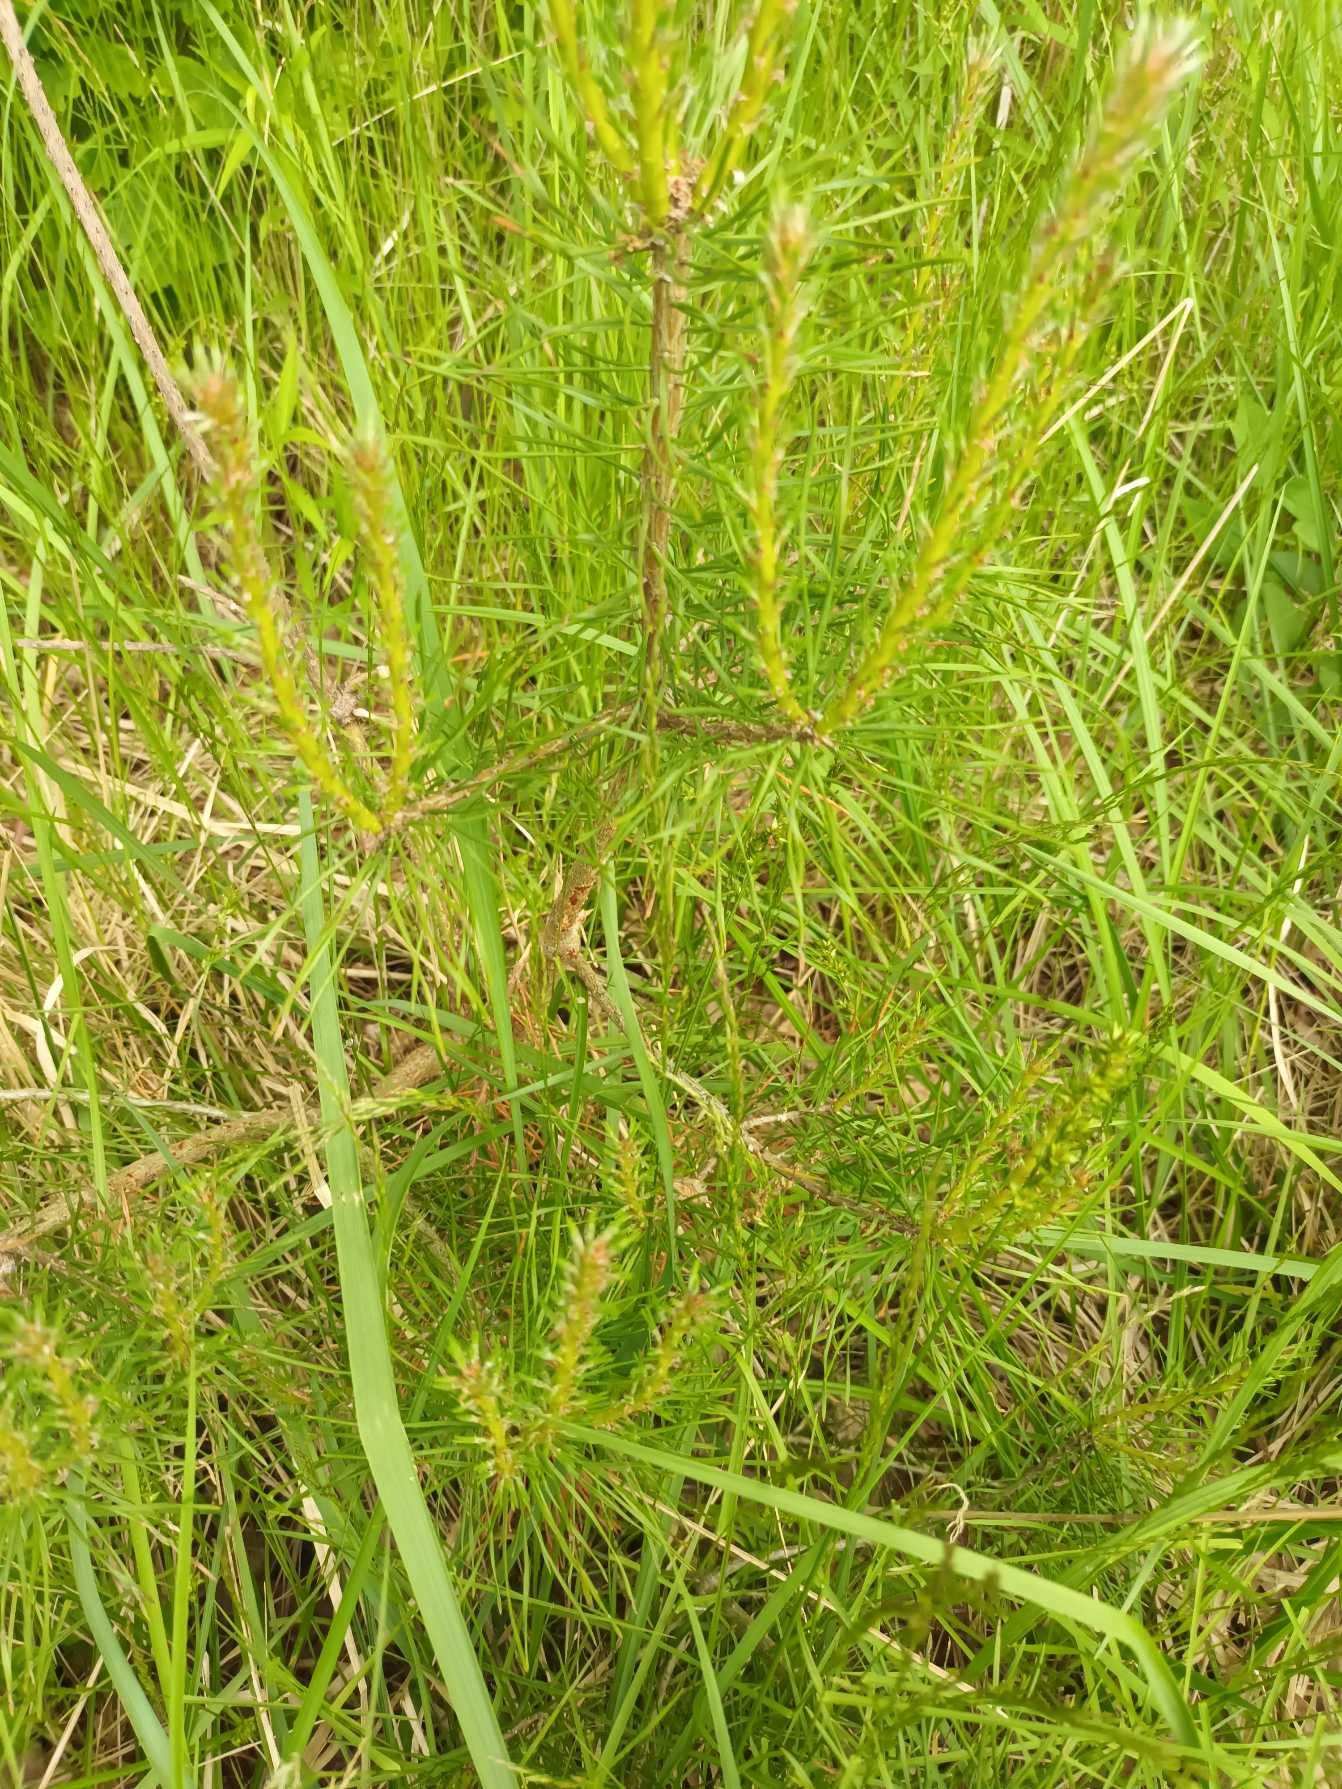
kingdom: Plantae
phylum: Tracheophyta
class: Pinopsida
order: Pinales
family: Pinaceae
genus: Pinus
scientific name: Pinus sylvestris
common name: Skov-fyr
